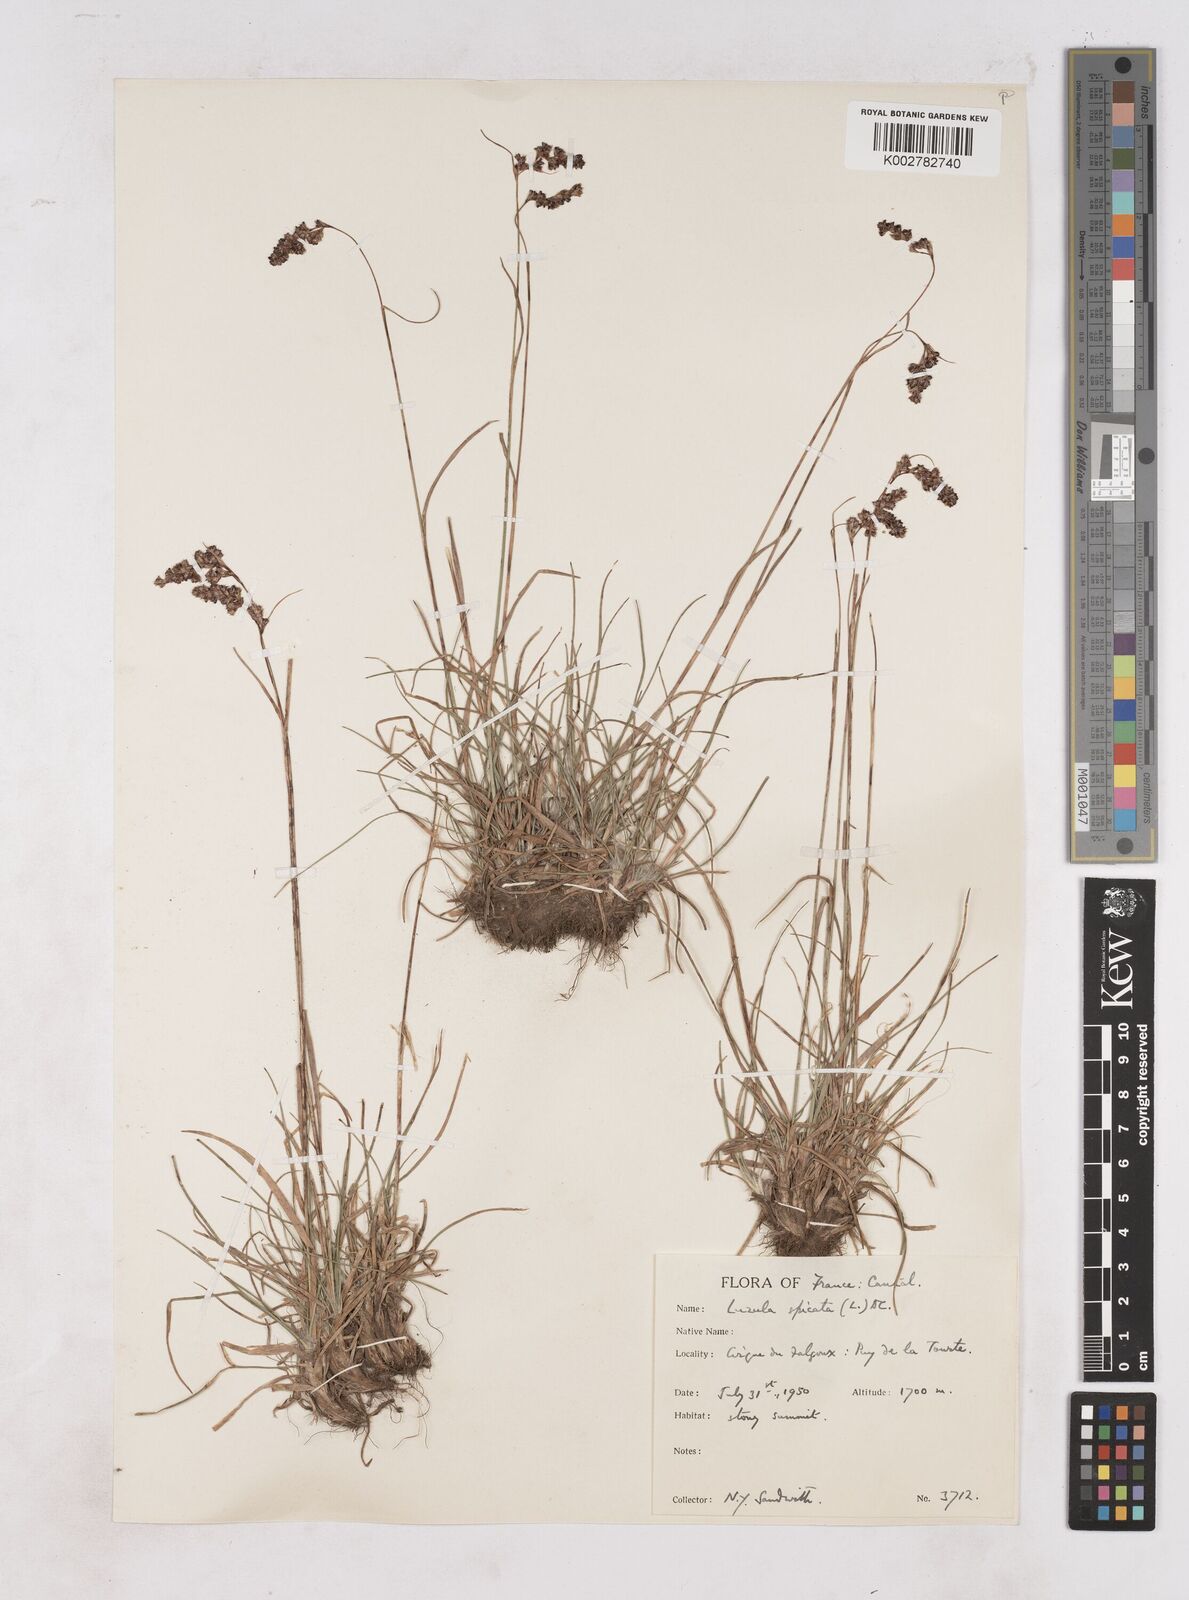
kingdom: Plantae
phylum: Tracheophyta
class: Liliopsida
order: Poales
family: Juncaceae
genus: Luzula
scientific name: Luzula spicata
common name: Spiked wood-rush
